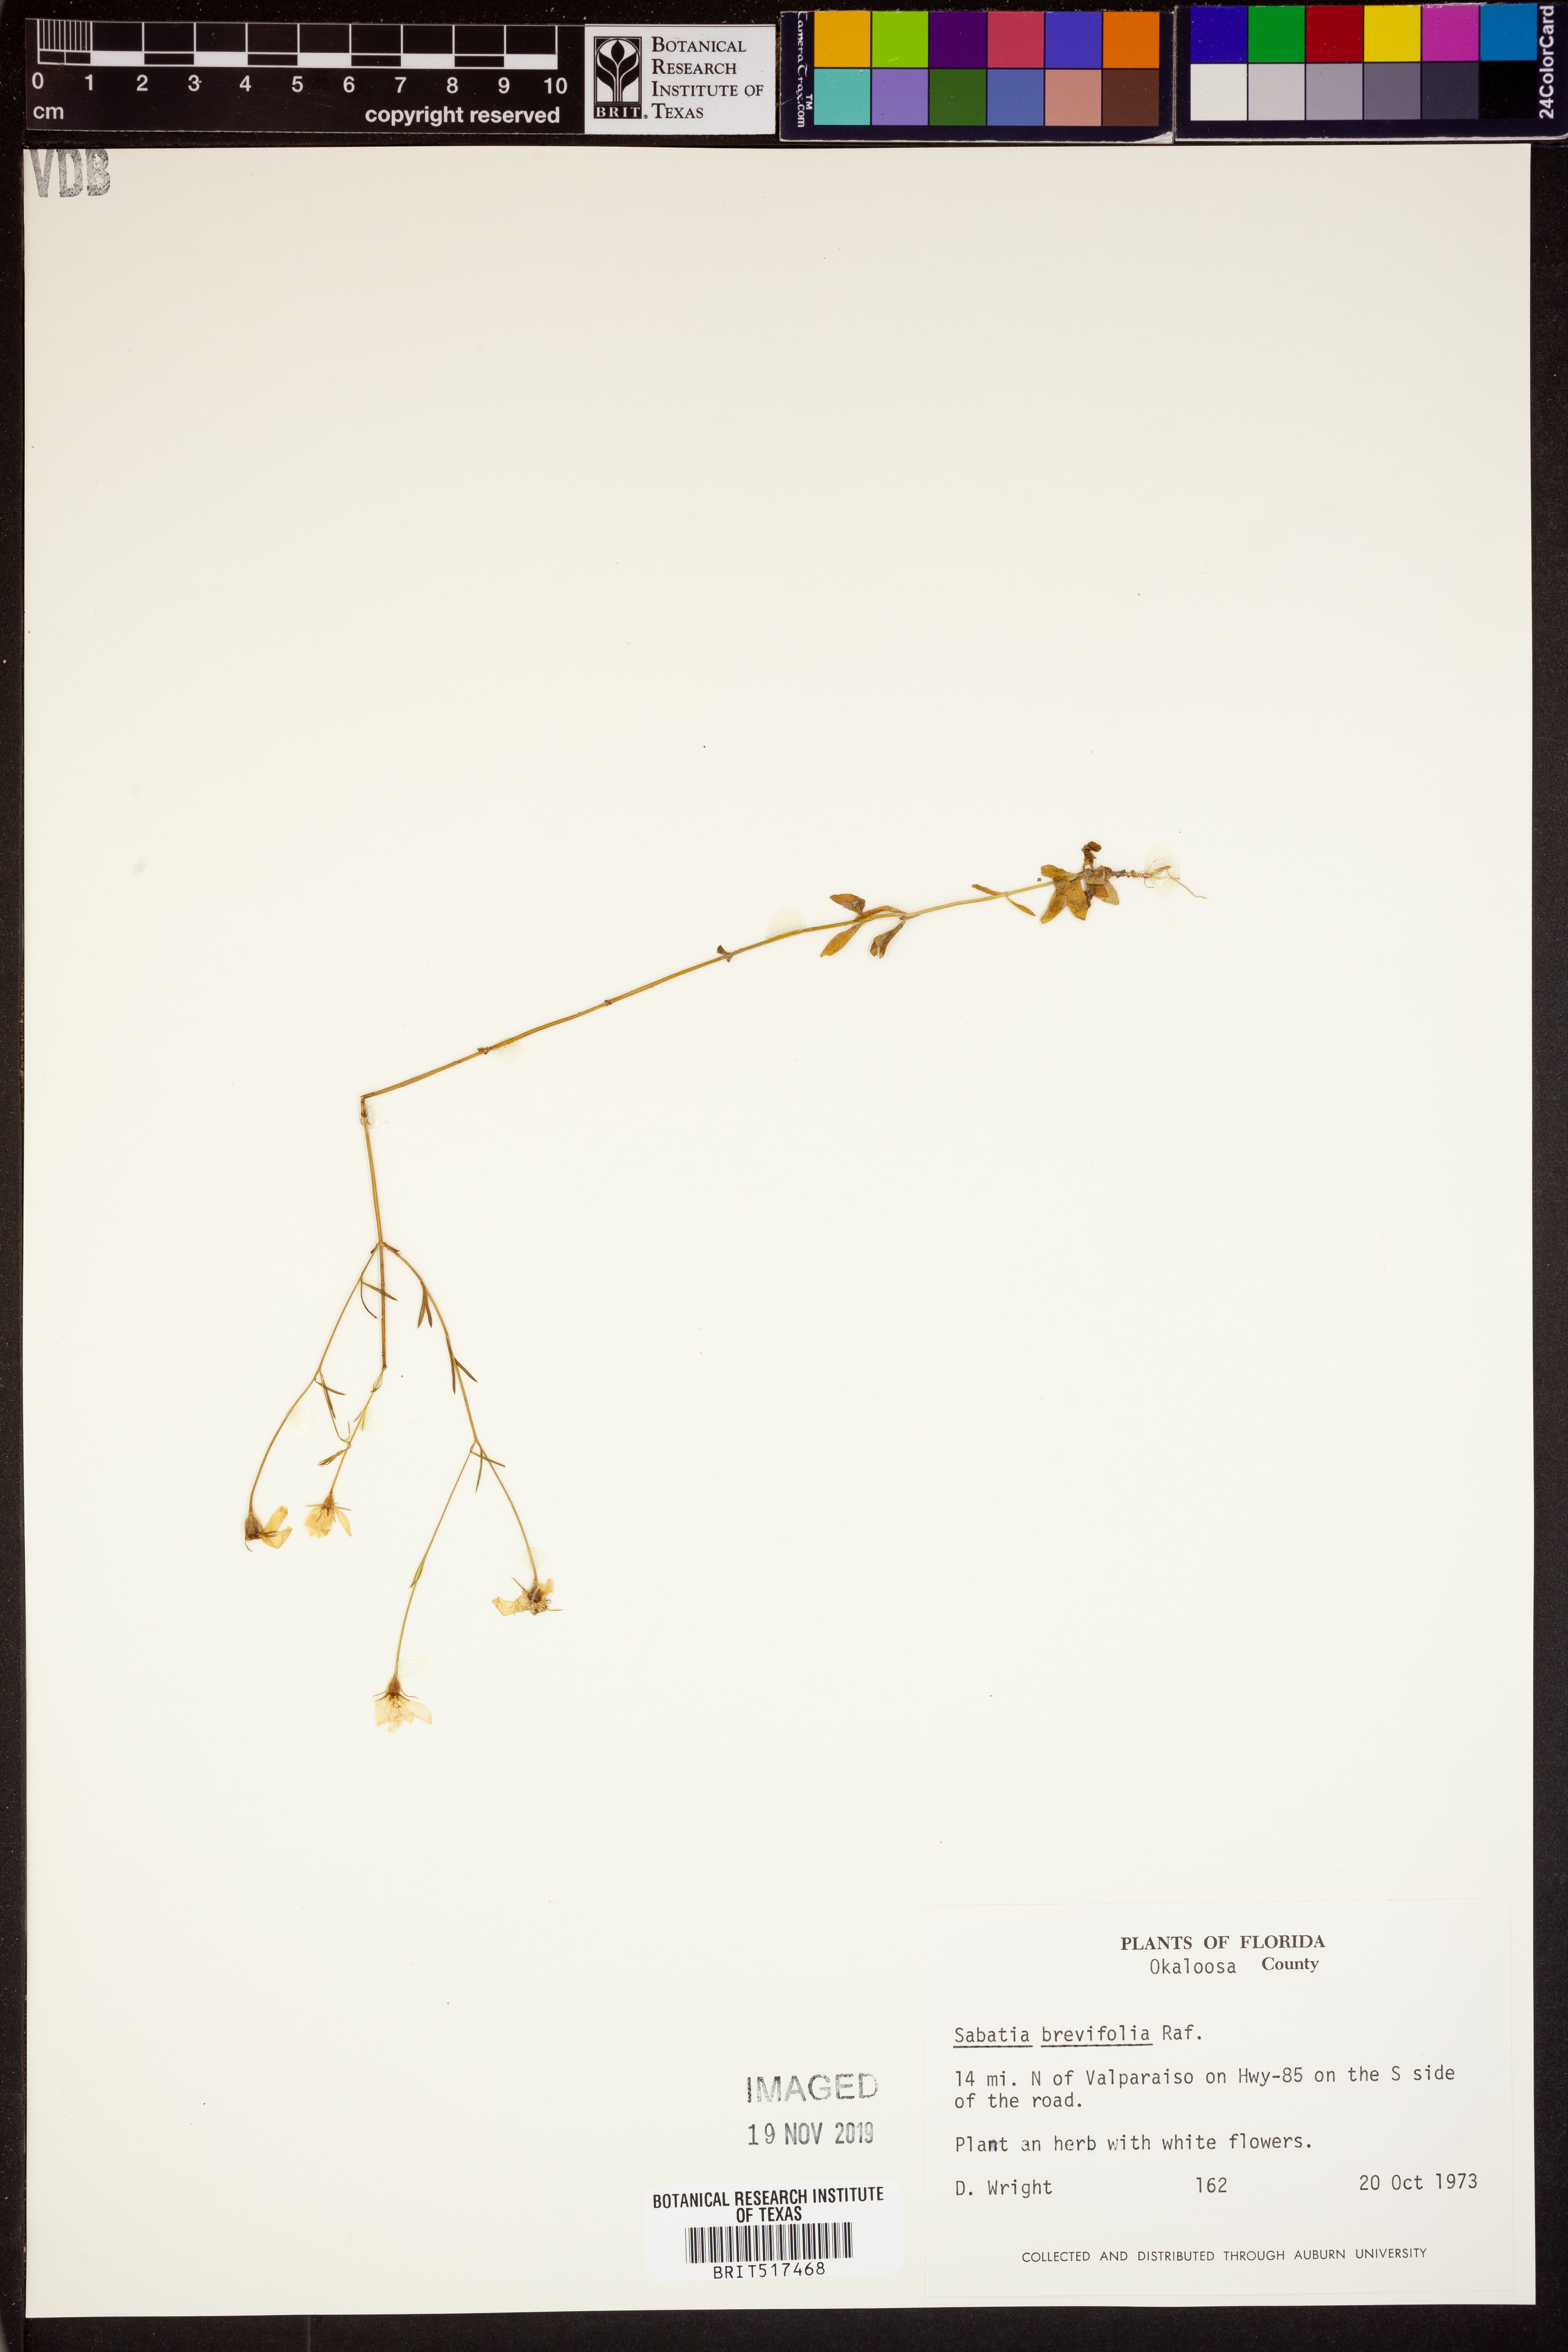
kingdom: Plantae
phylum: Tracheophyta
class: Magnoliopsida
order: Gentianales
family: Gentianaceae
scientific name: Gentianaceae
